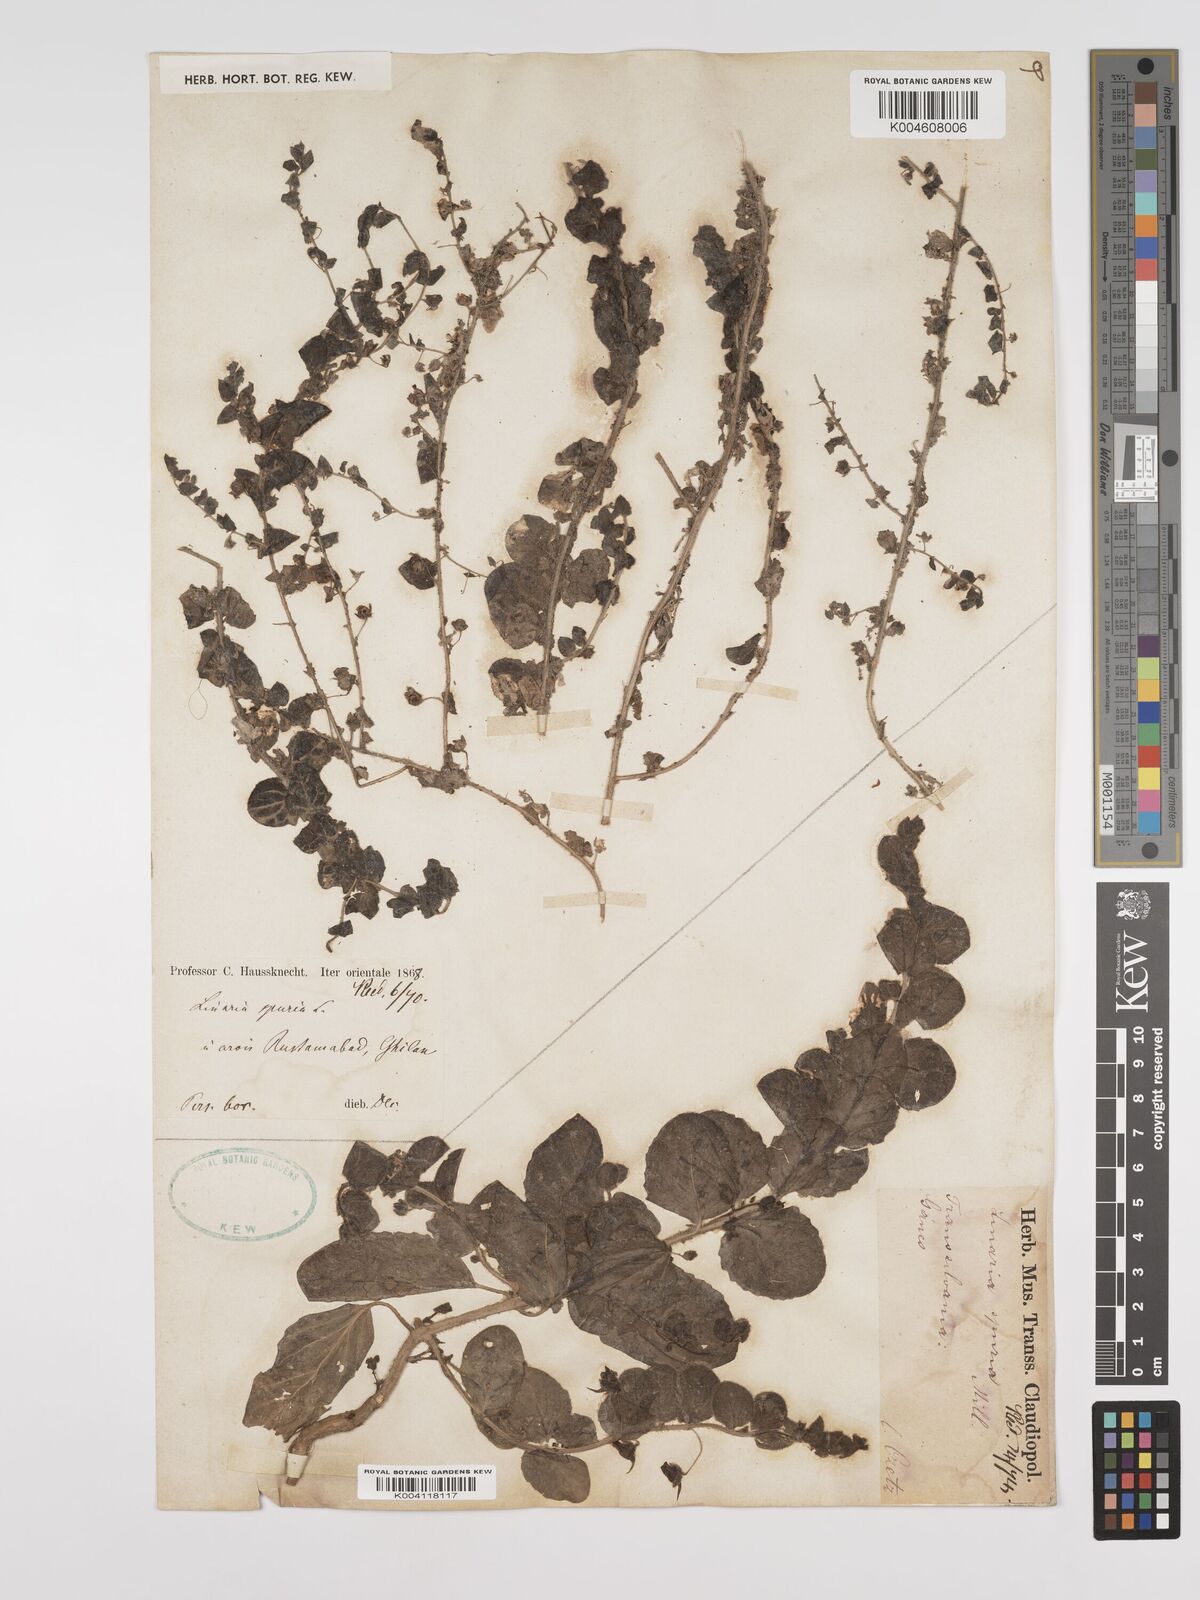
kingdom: Plantae
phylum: Tracheophyta
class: Magnoliopsida
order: Lamiales
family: Plantaginaceae
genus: Kickxia
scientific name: Kickxia spuria
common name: Round-leaved fluellen
